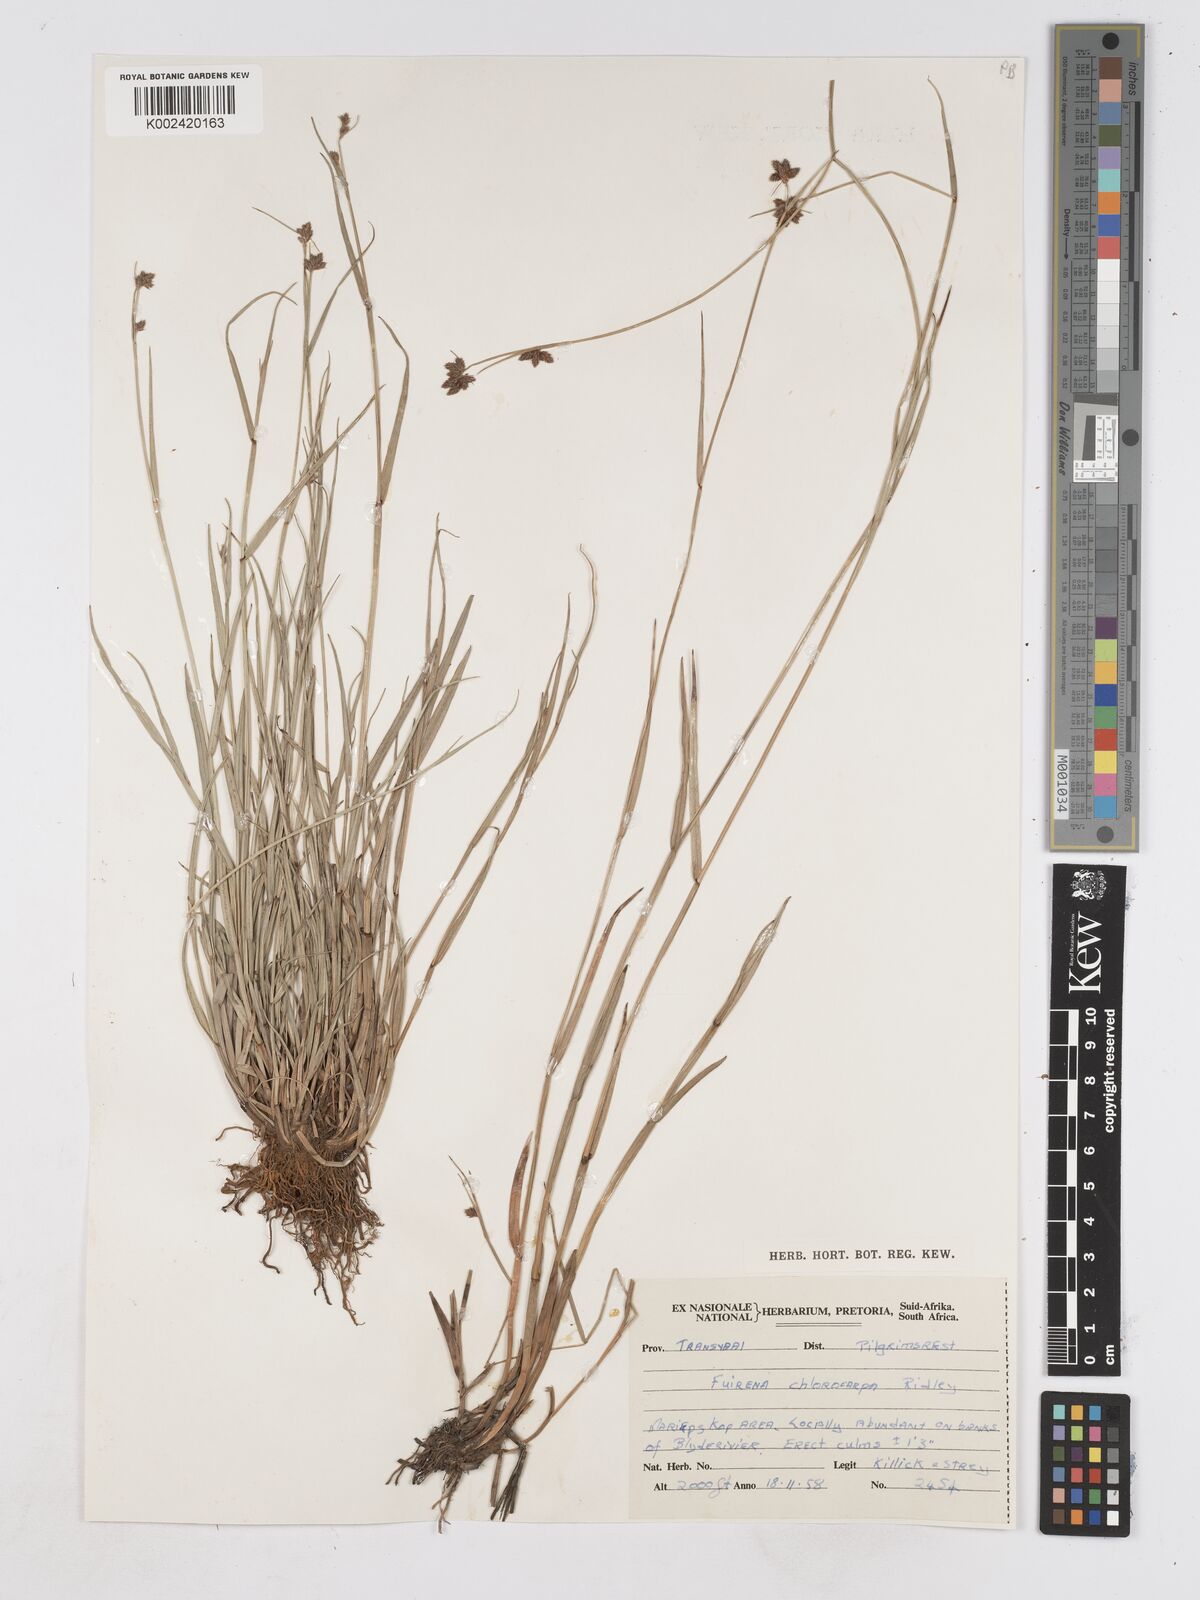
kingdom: Plantae
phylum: Tracheophyta
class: Liliopsida
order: Poales
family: Cyperaceae
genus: Fuirena
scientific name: Fuirena stricta
